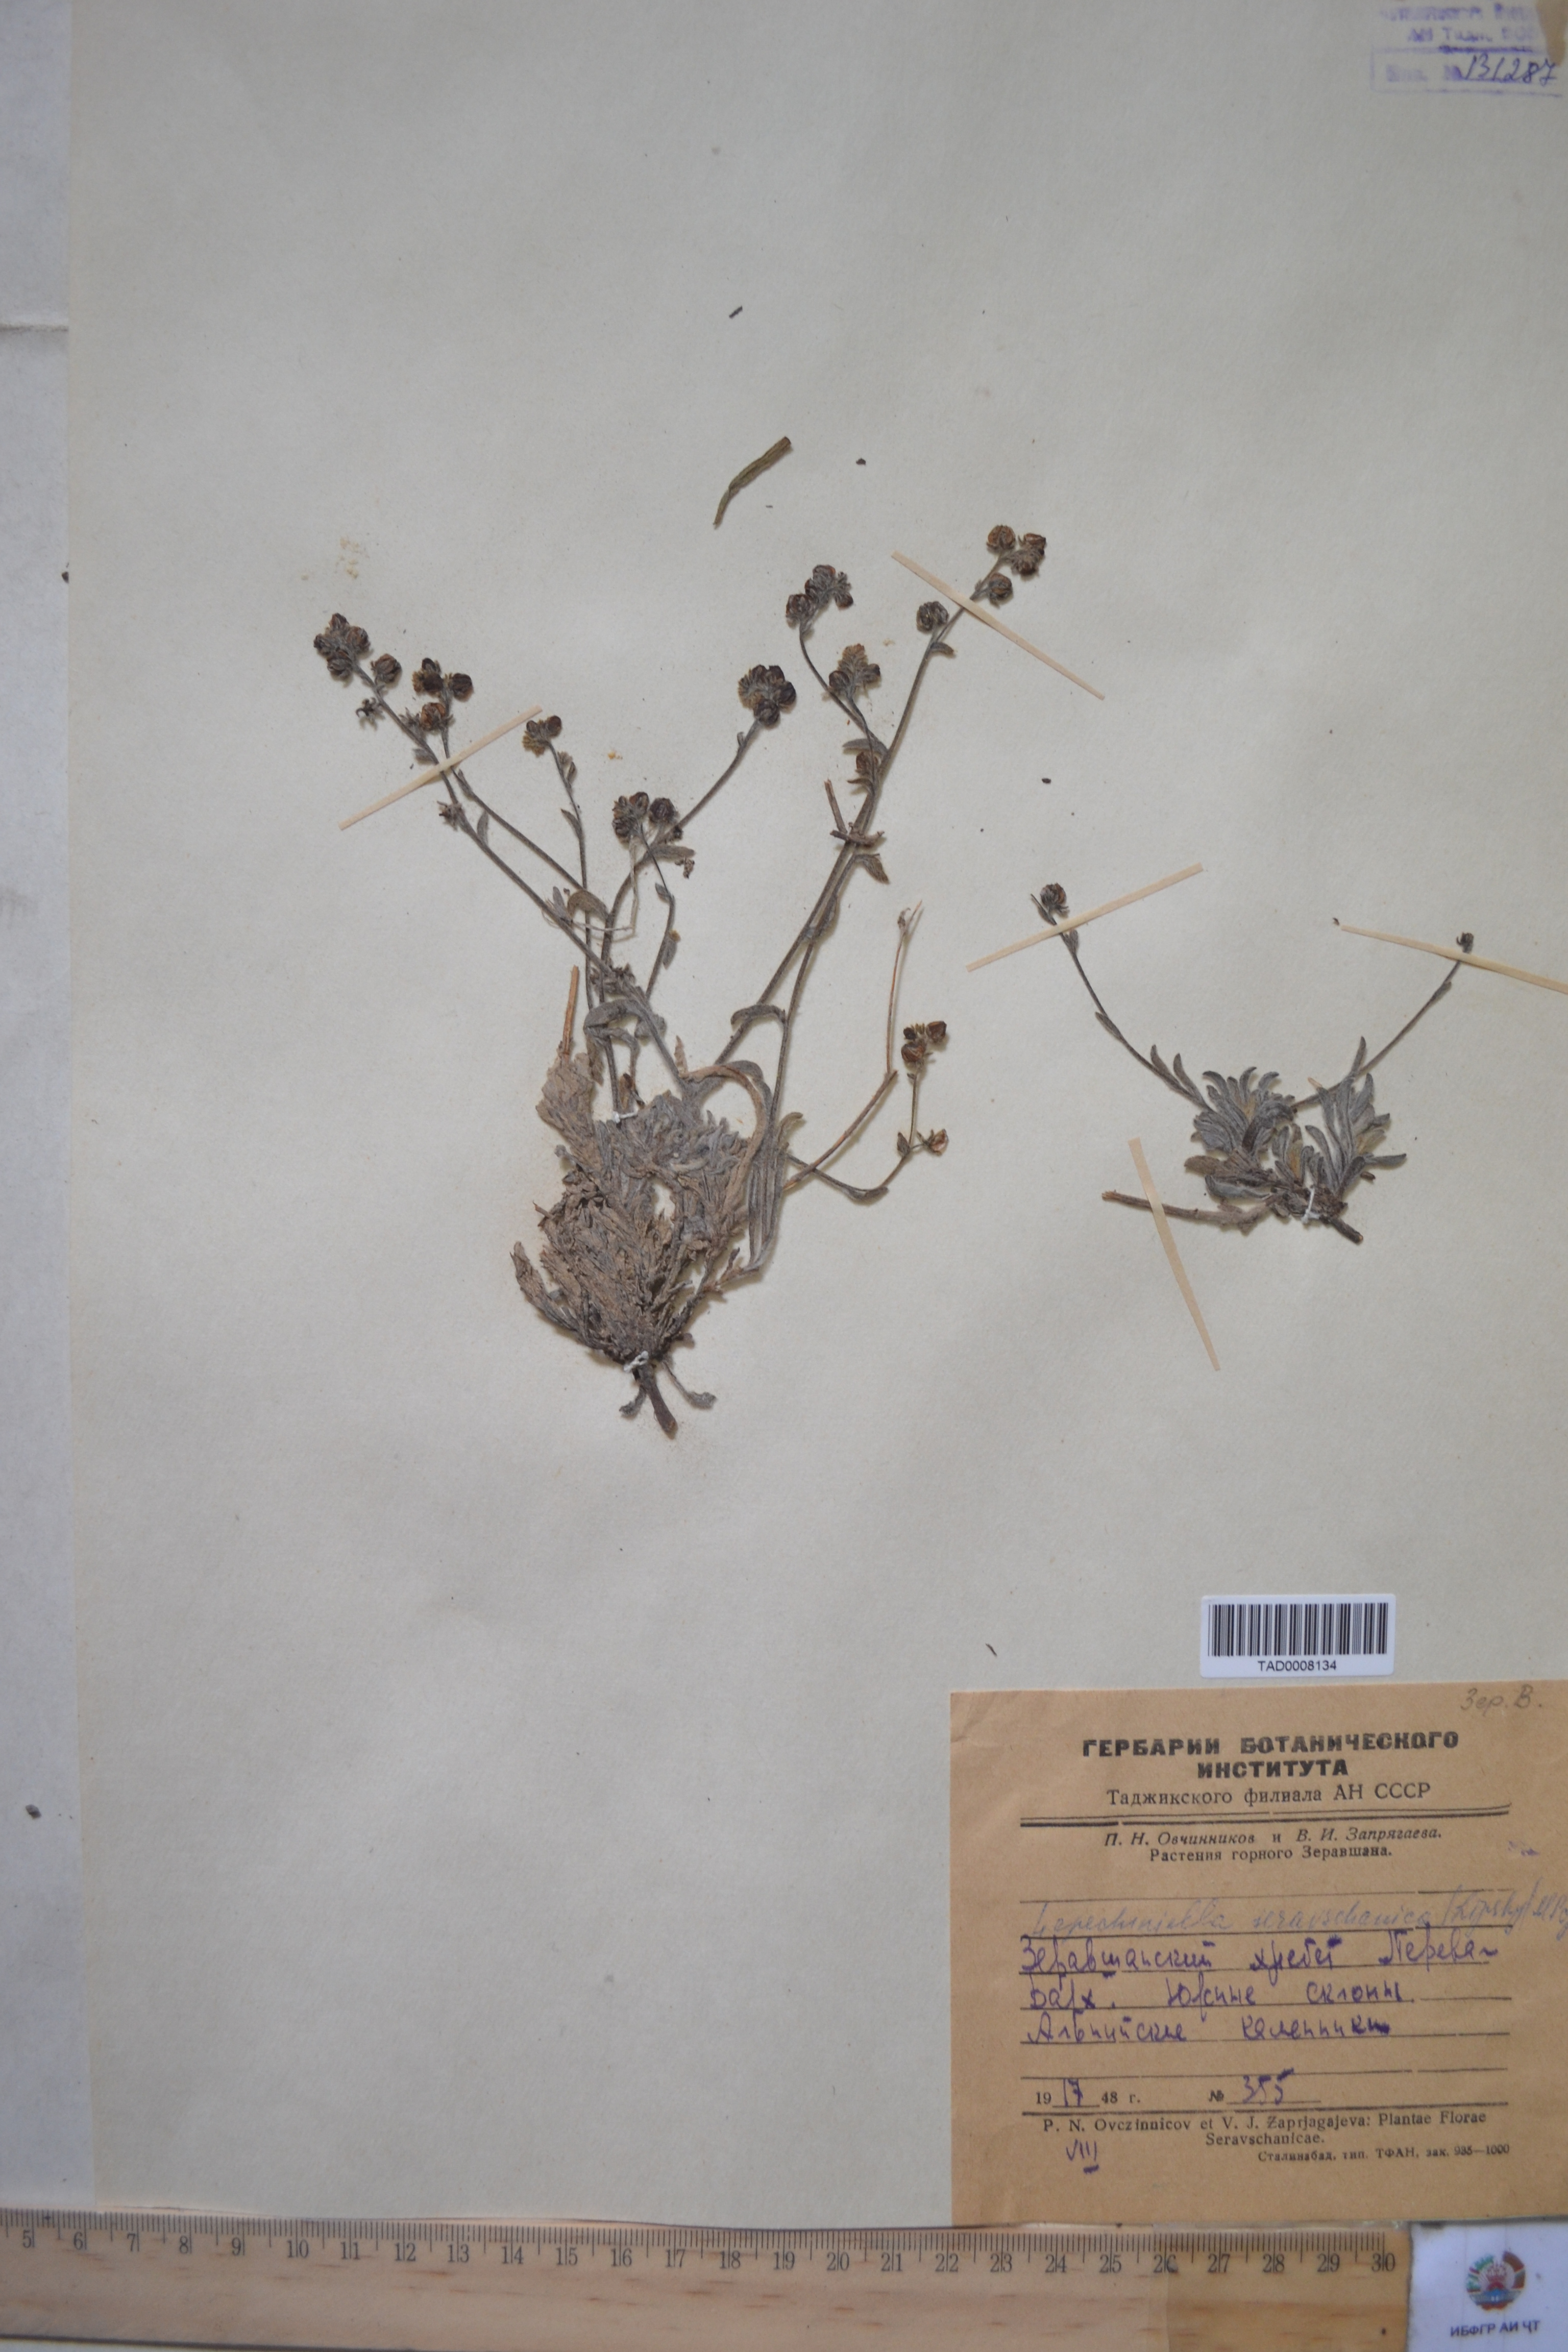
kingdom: Plantae
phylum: Tracheophyta
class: Magnoliopsida
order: Boraginales
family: Boraginaceae
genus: Lepechiniella
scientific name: Lepechiniella seravschanica
